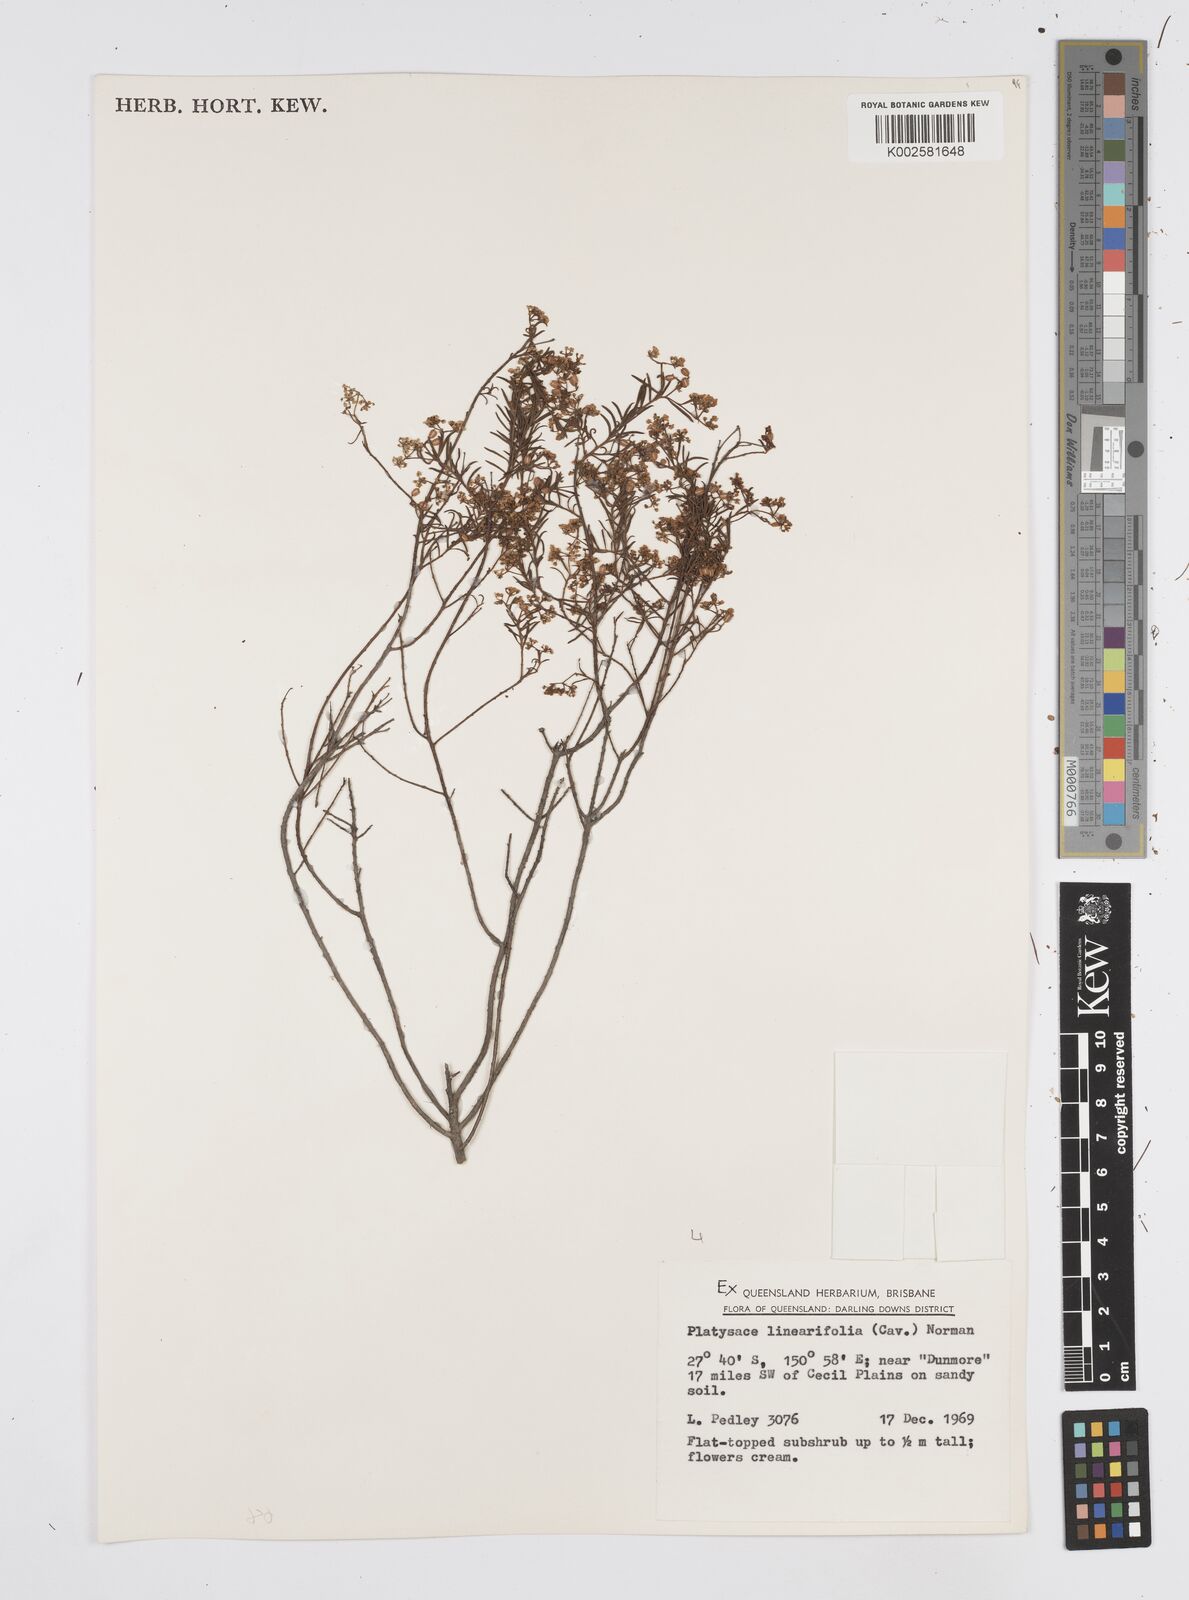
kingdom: Plantae
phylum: Tracheophyta
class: Magnoliopsida
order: Apiales
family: Apiaceae
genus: Platysace
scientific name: Platysace linearifolia
